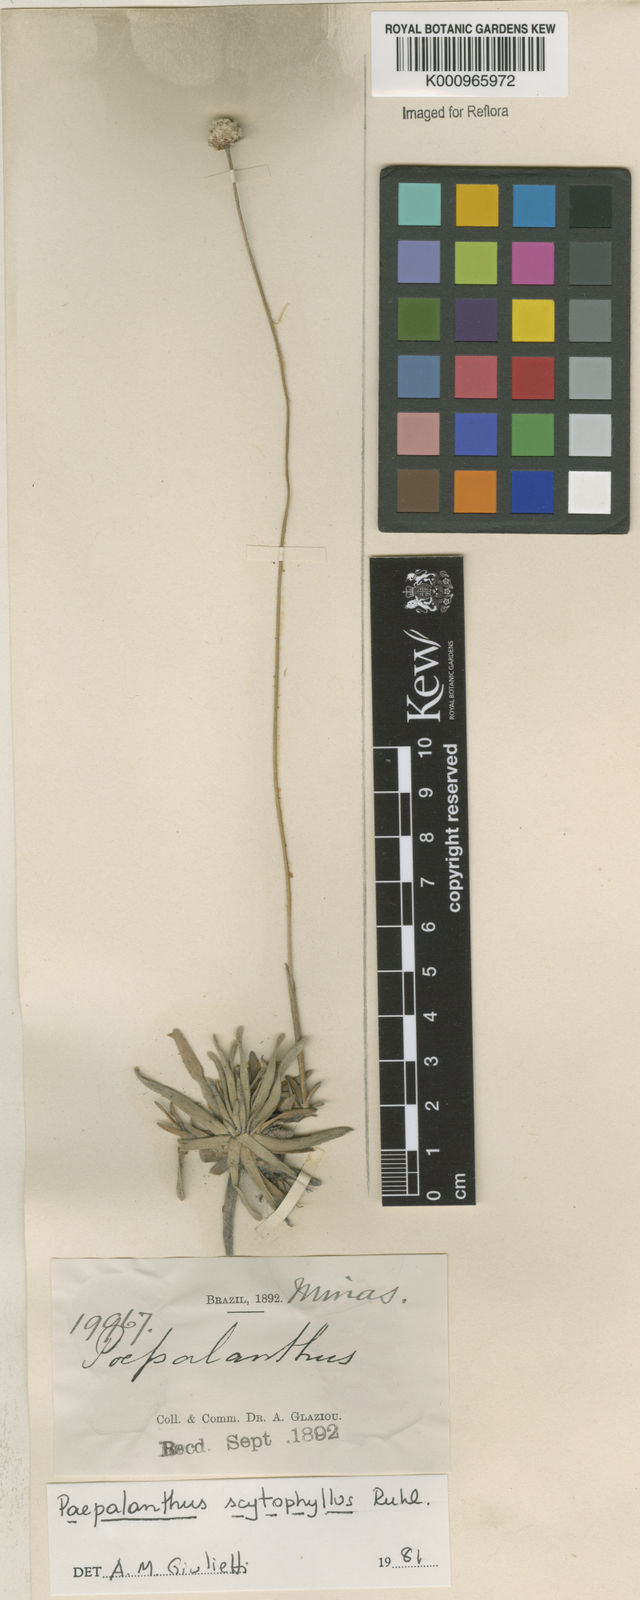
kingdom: Plantae
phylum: Tracheophyta
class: Liliopsida
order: Poales
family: Eriocaulaceae
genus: Paepalanthus
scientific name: Paepalanthus scytophyllus
